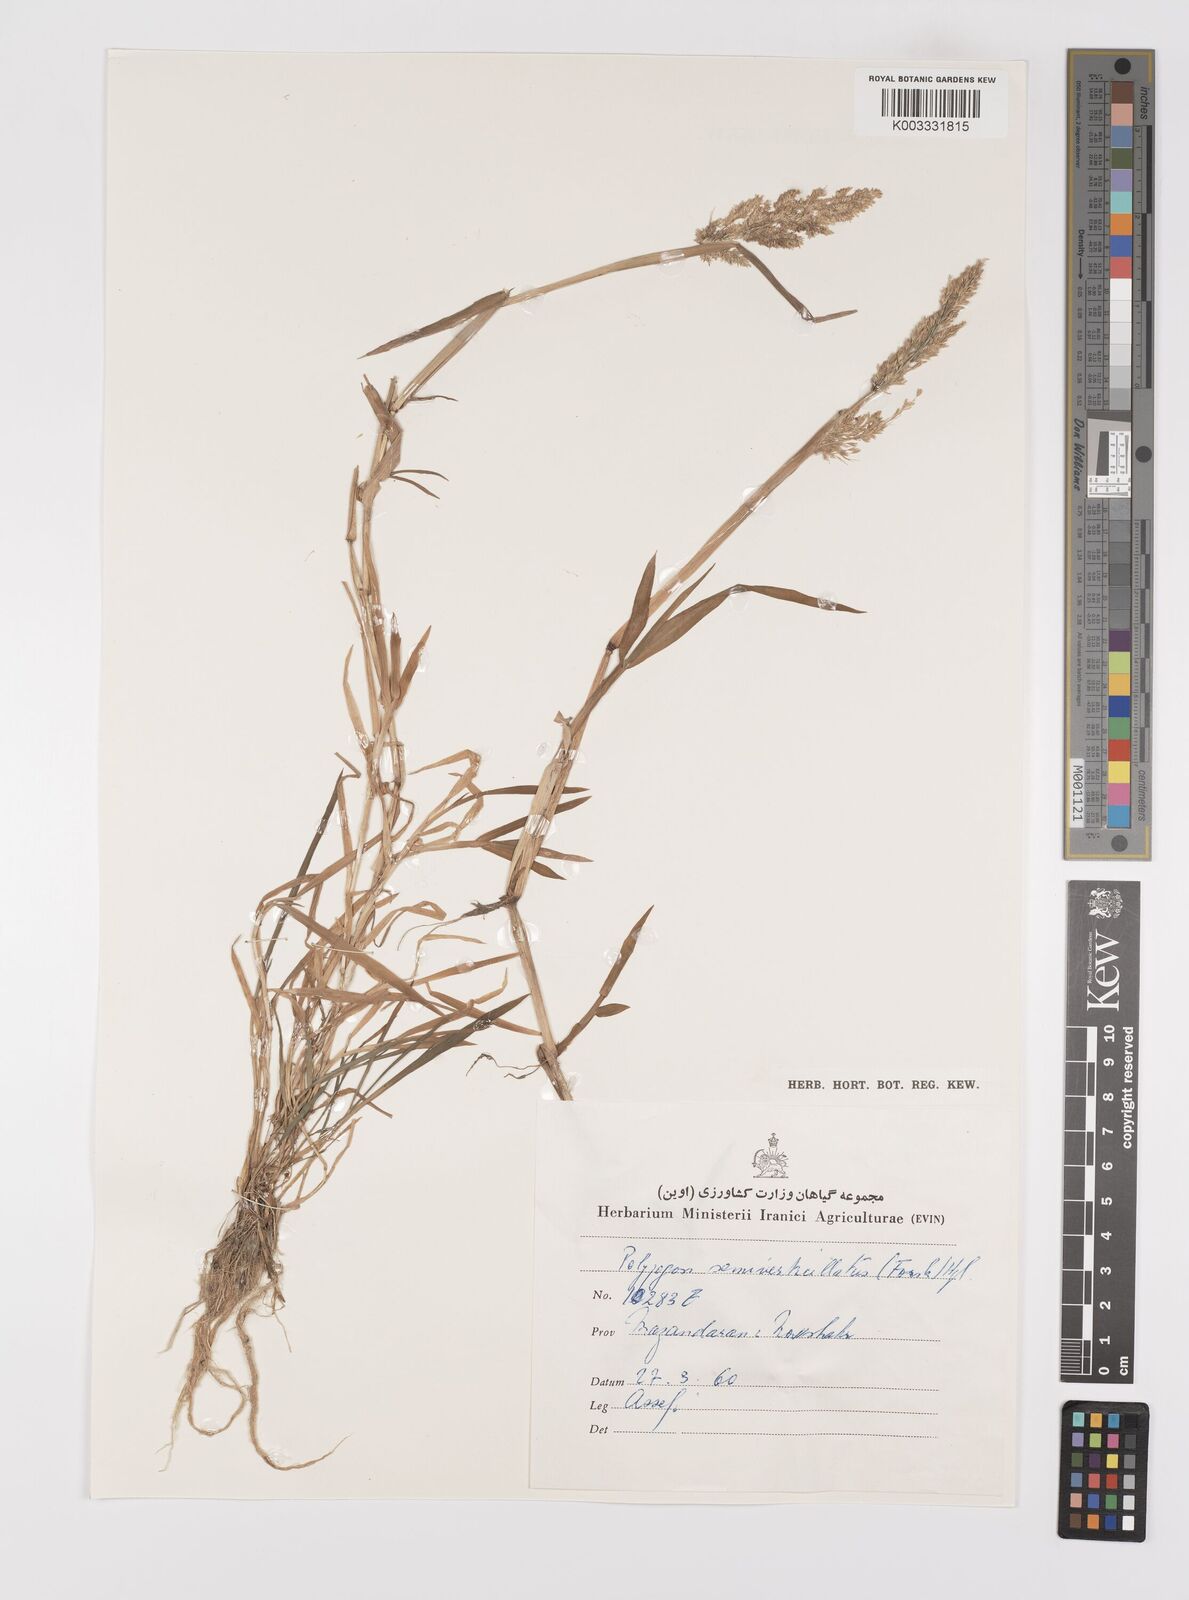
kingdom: Plantae
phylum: Tracheophyta
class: Liliopsida
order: Poales
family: Poaceae
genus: Polypogon
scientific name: Polypogon viridis
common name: Water bent
